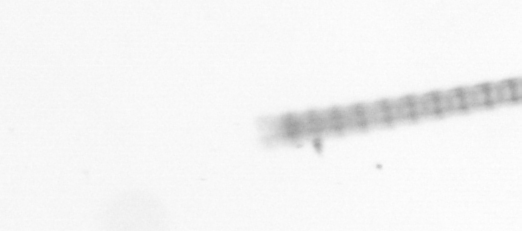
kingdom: Chromista
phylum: Ochrophyta
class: Bacillariophyceae
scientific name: Bacillariophyceae
